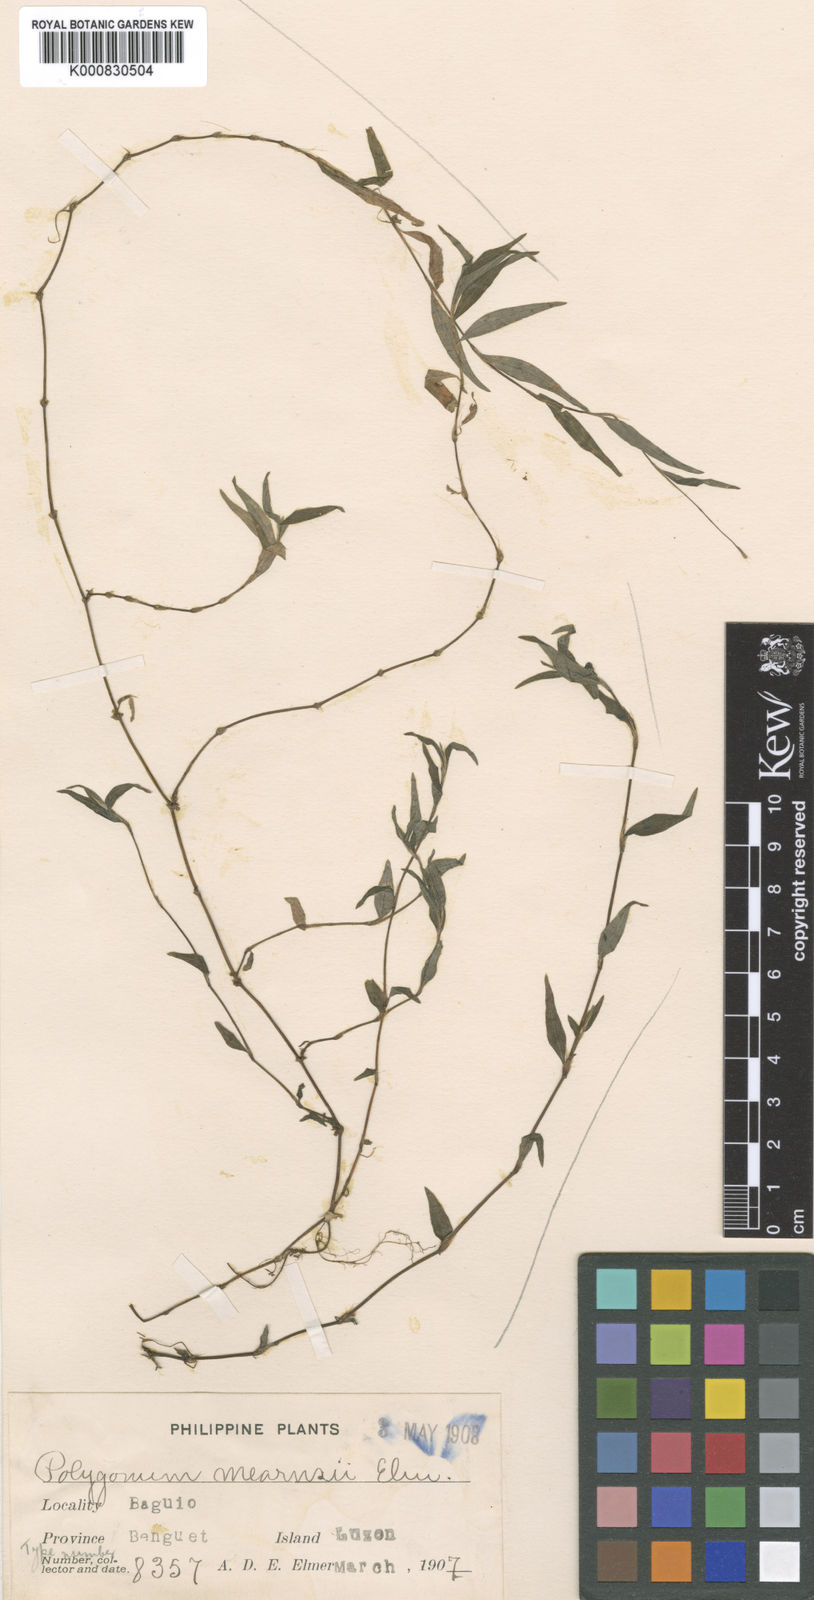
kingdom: Plantae
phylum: Tracheophyta
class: Magnoliopsida
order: Caryophyllales
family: Polygonaceae
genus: Persicaria
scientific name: Persicaria posumbu
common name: Oriental lady's thumb
